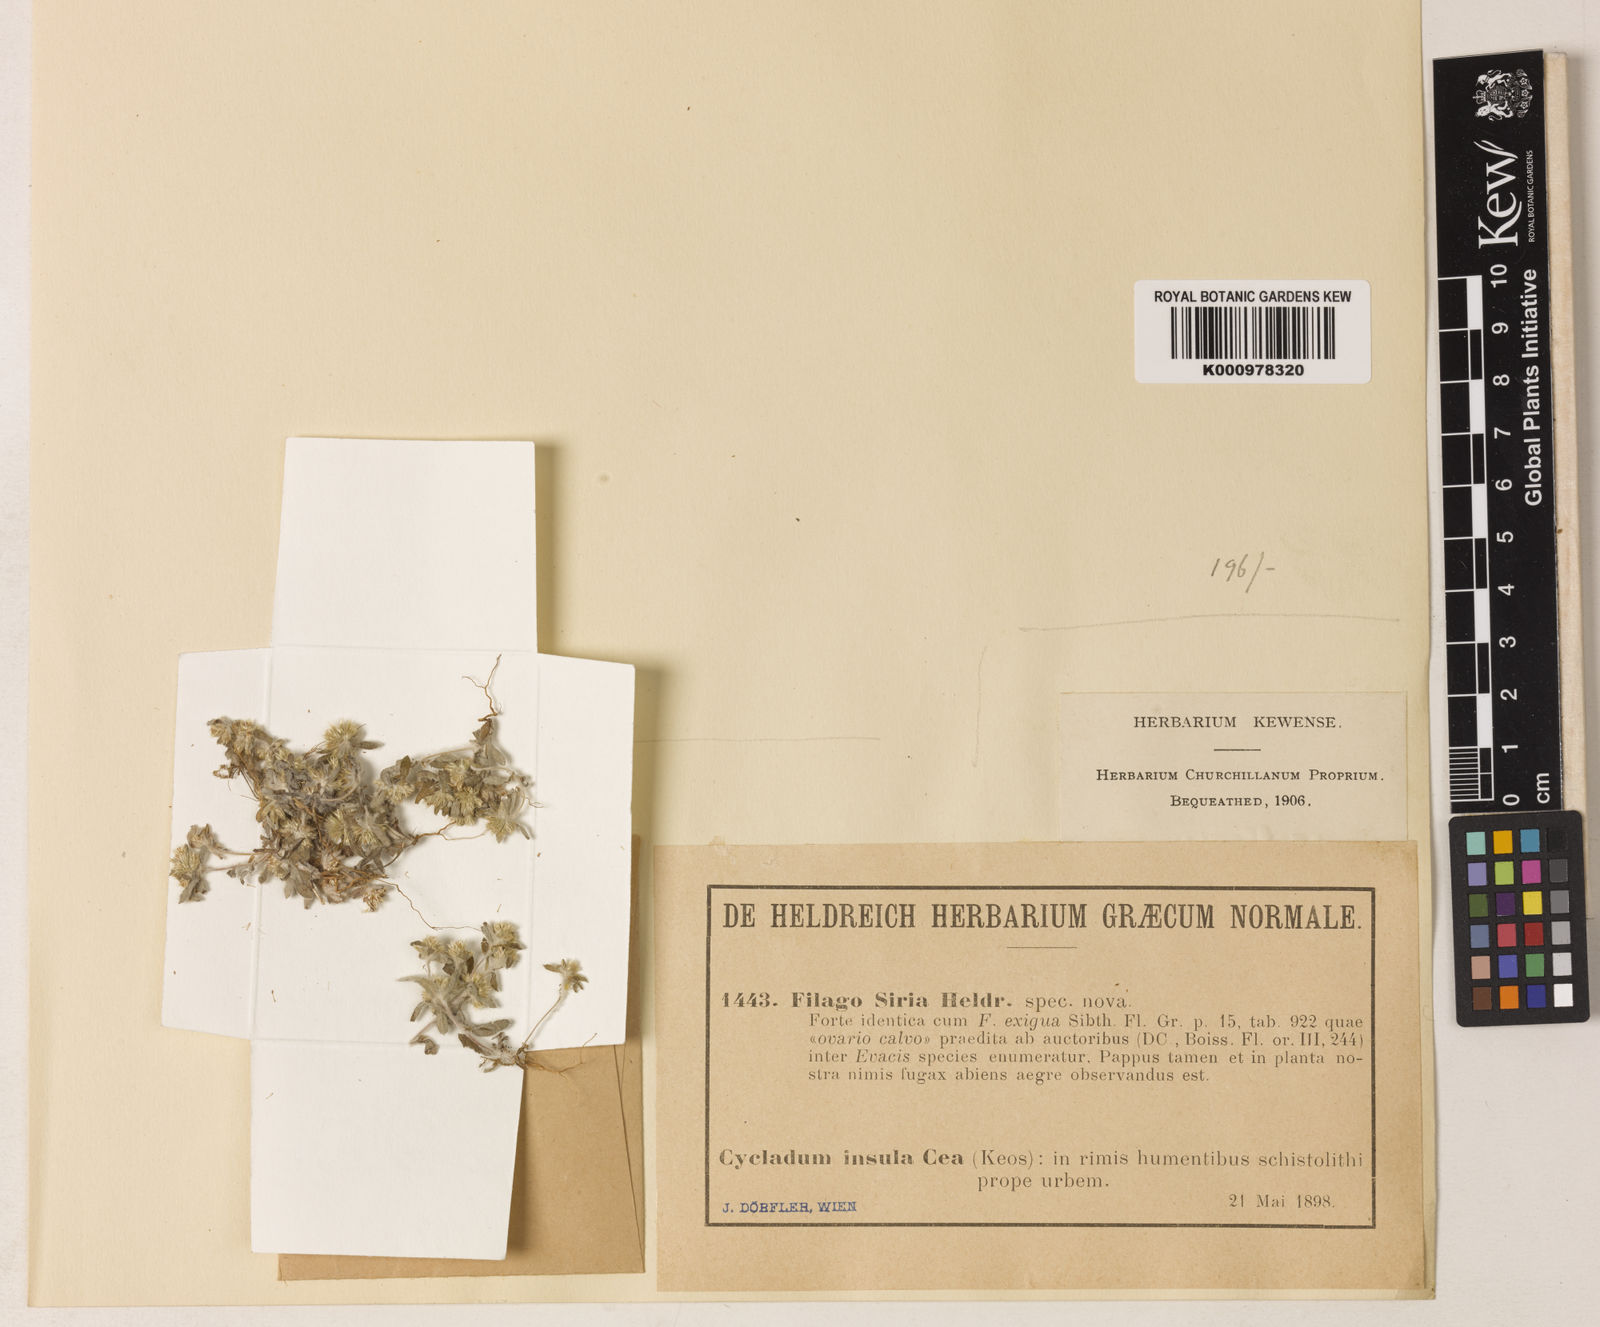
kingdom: Plantae
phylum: Tracheophyta
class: Magnoliopsida
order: Asterales
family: Asteraceae
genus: Filago
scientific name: Filago
